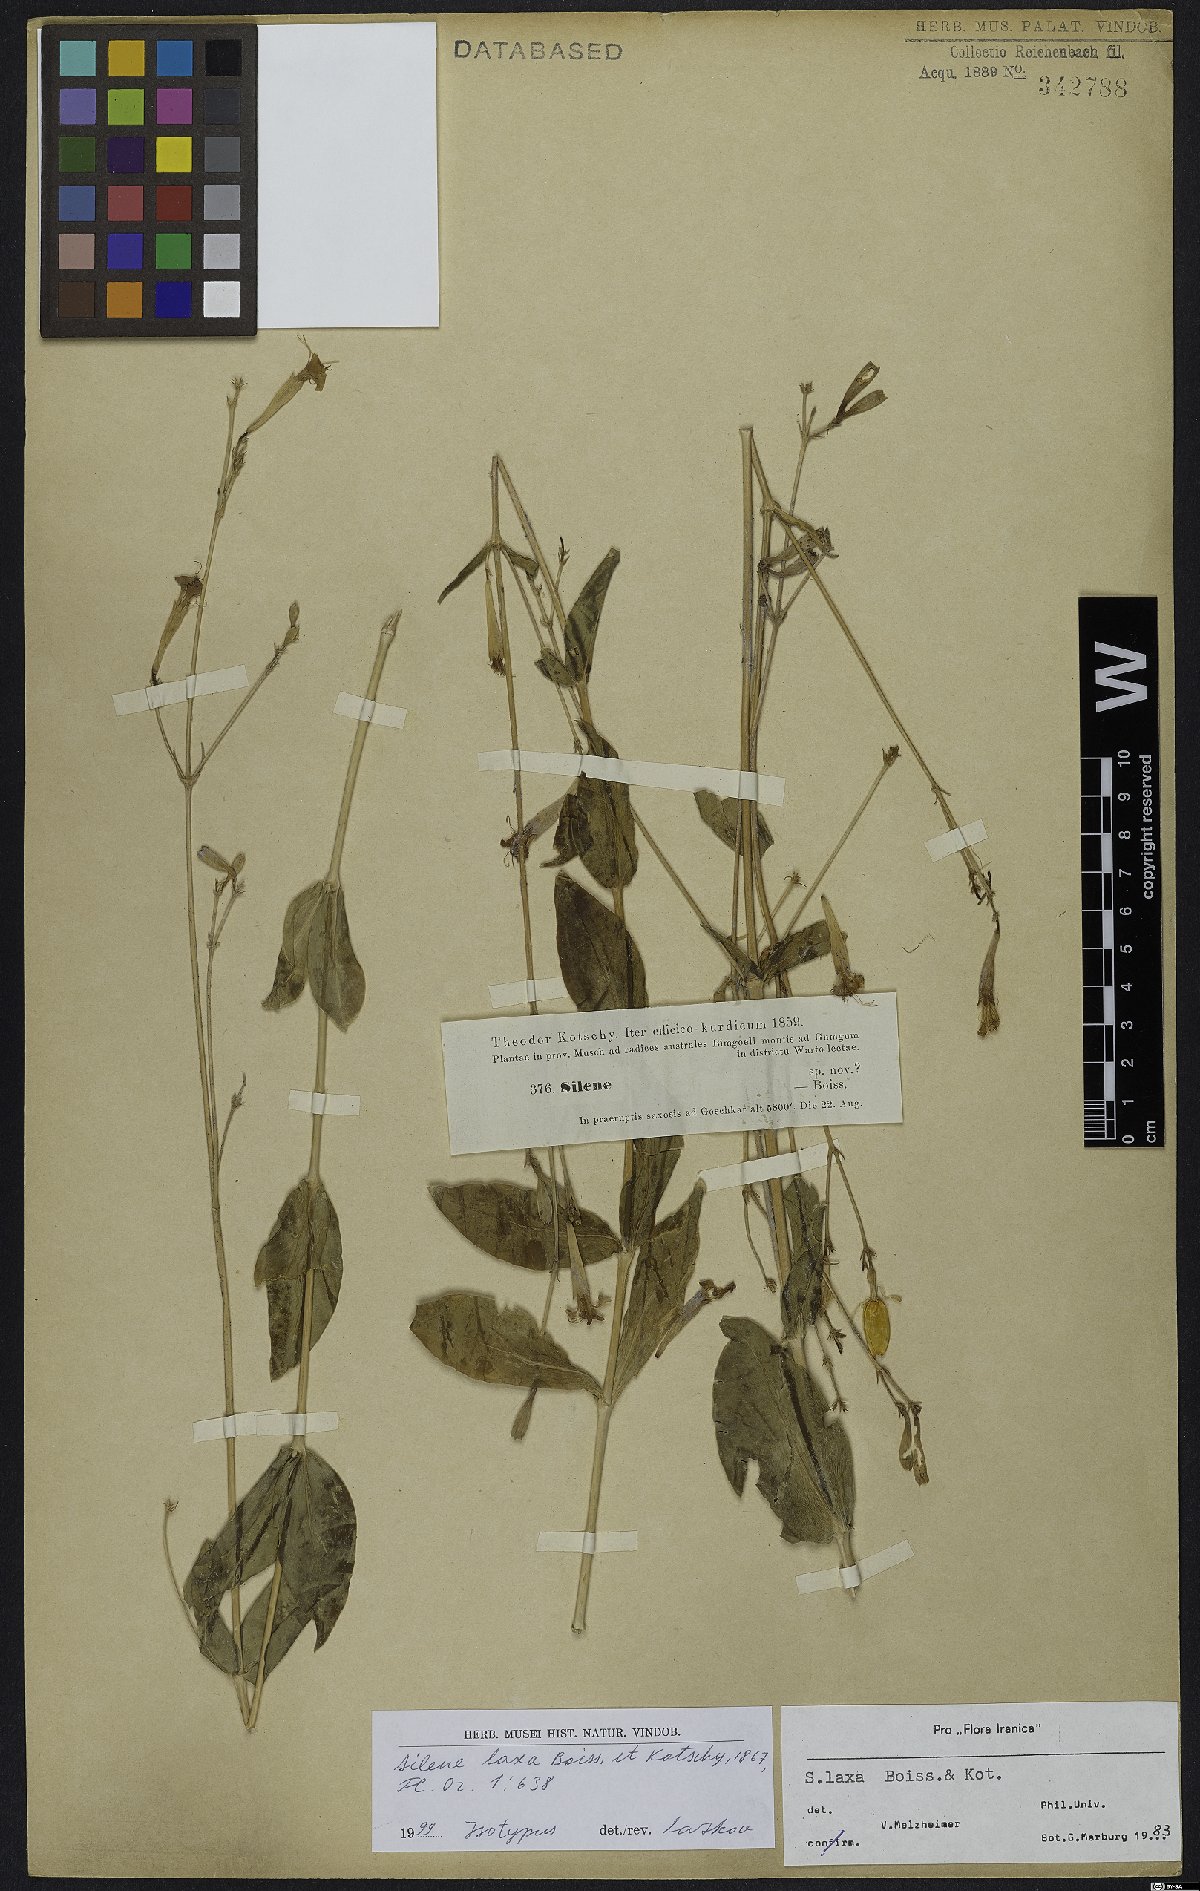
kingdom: Plantae
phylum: Tracheophyta
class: Magnoliopsida
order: Caryophyllales
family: Caryophyllaceae
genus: Silene
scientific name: Silene laxa
